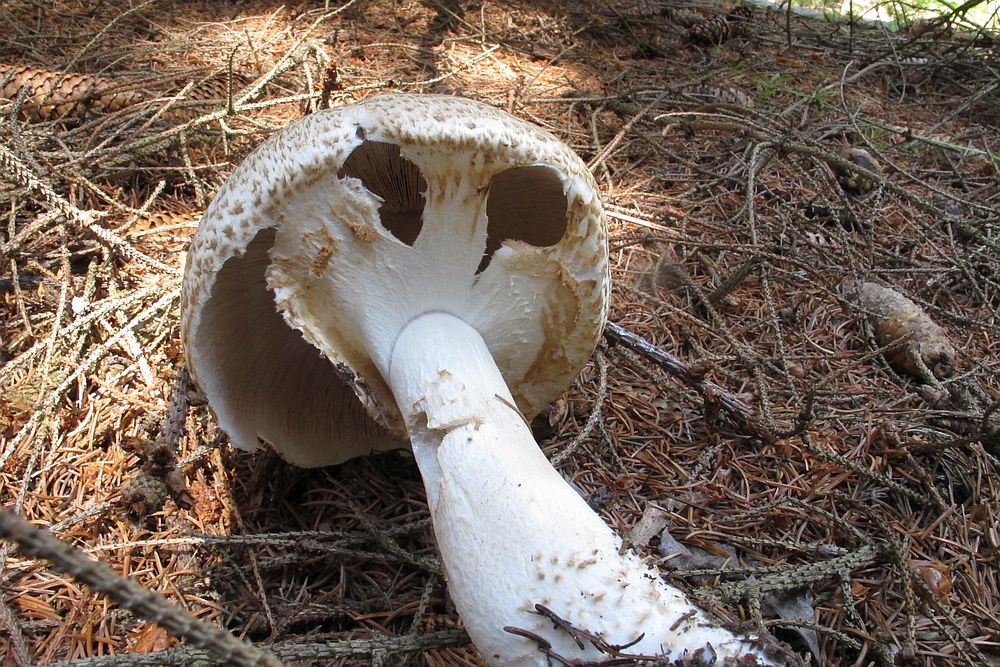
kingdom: Fungi
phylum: Basidiomycota
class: Agaricomycetes
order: Agaricales
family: Agaricaceae
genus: Agaricus
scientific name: Agaricus augustus
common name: prægtig champignon
